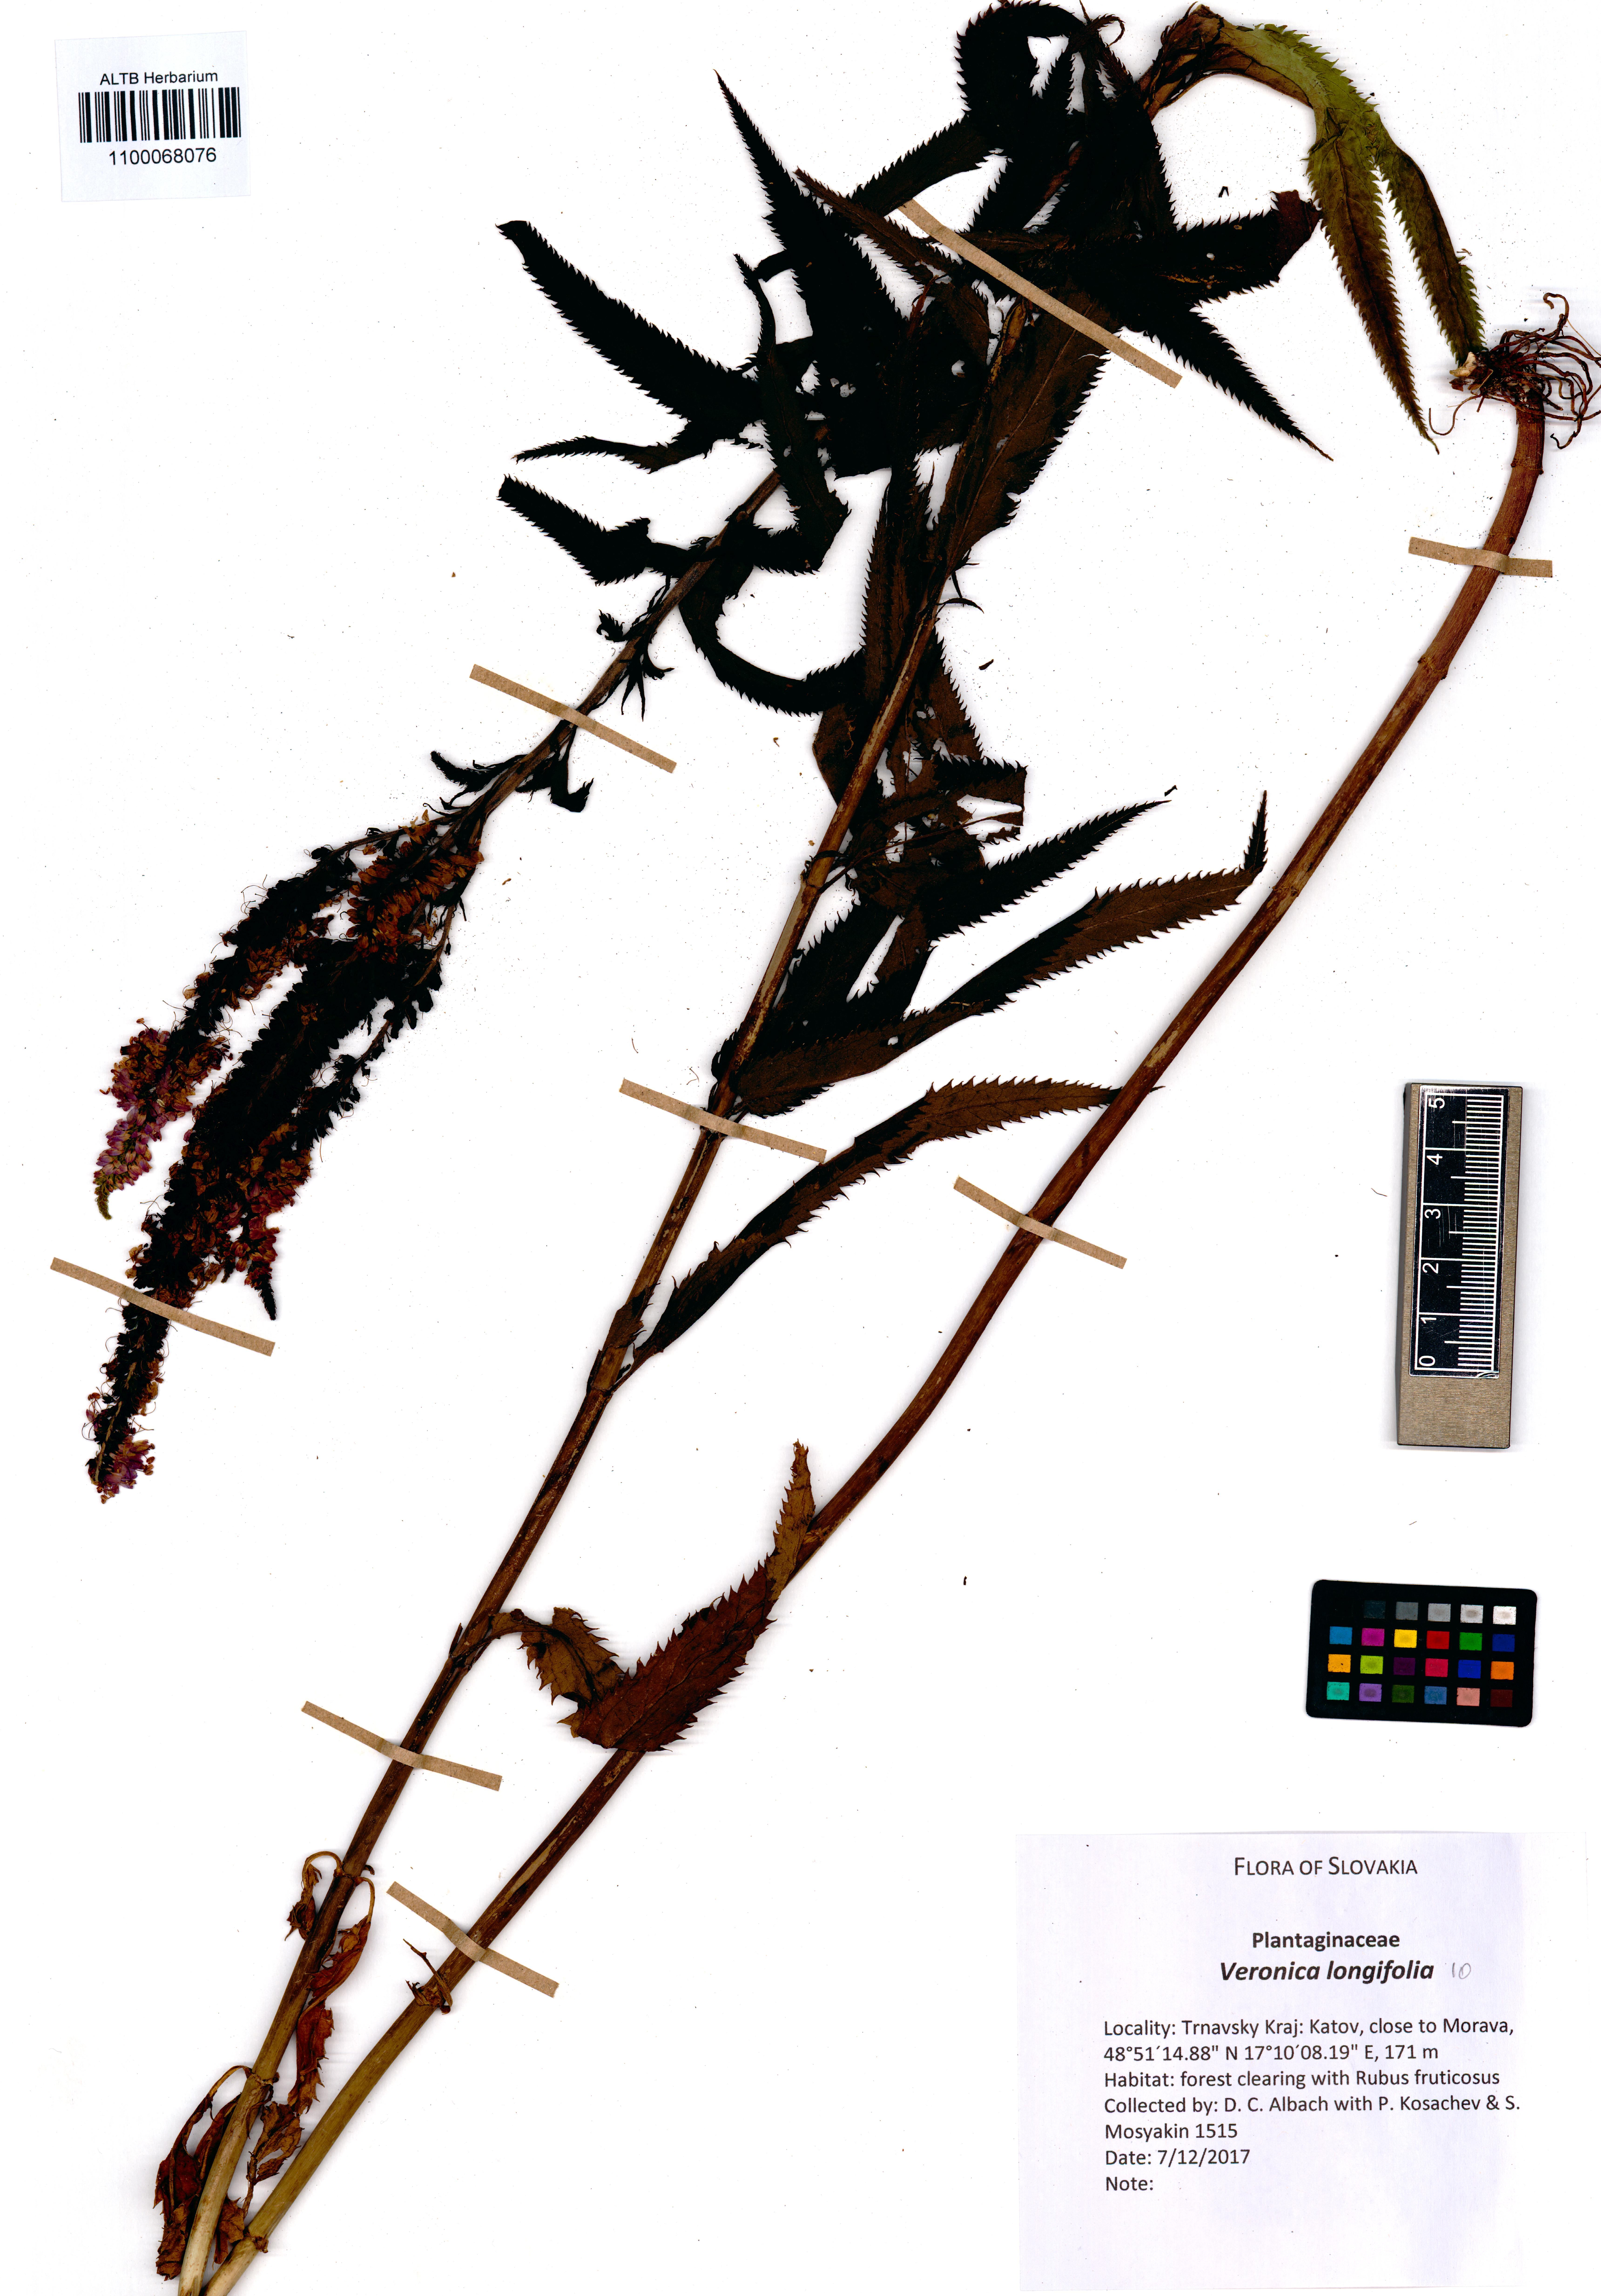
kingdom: Plantae
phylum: Tracheophyta
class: Magnoliopsida
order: Lamiales
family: Plantaginaceae
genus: Veronica
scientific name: Veronica longifolia
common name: Garden speedwell
